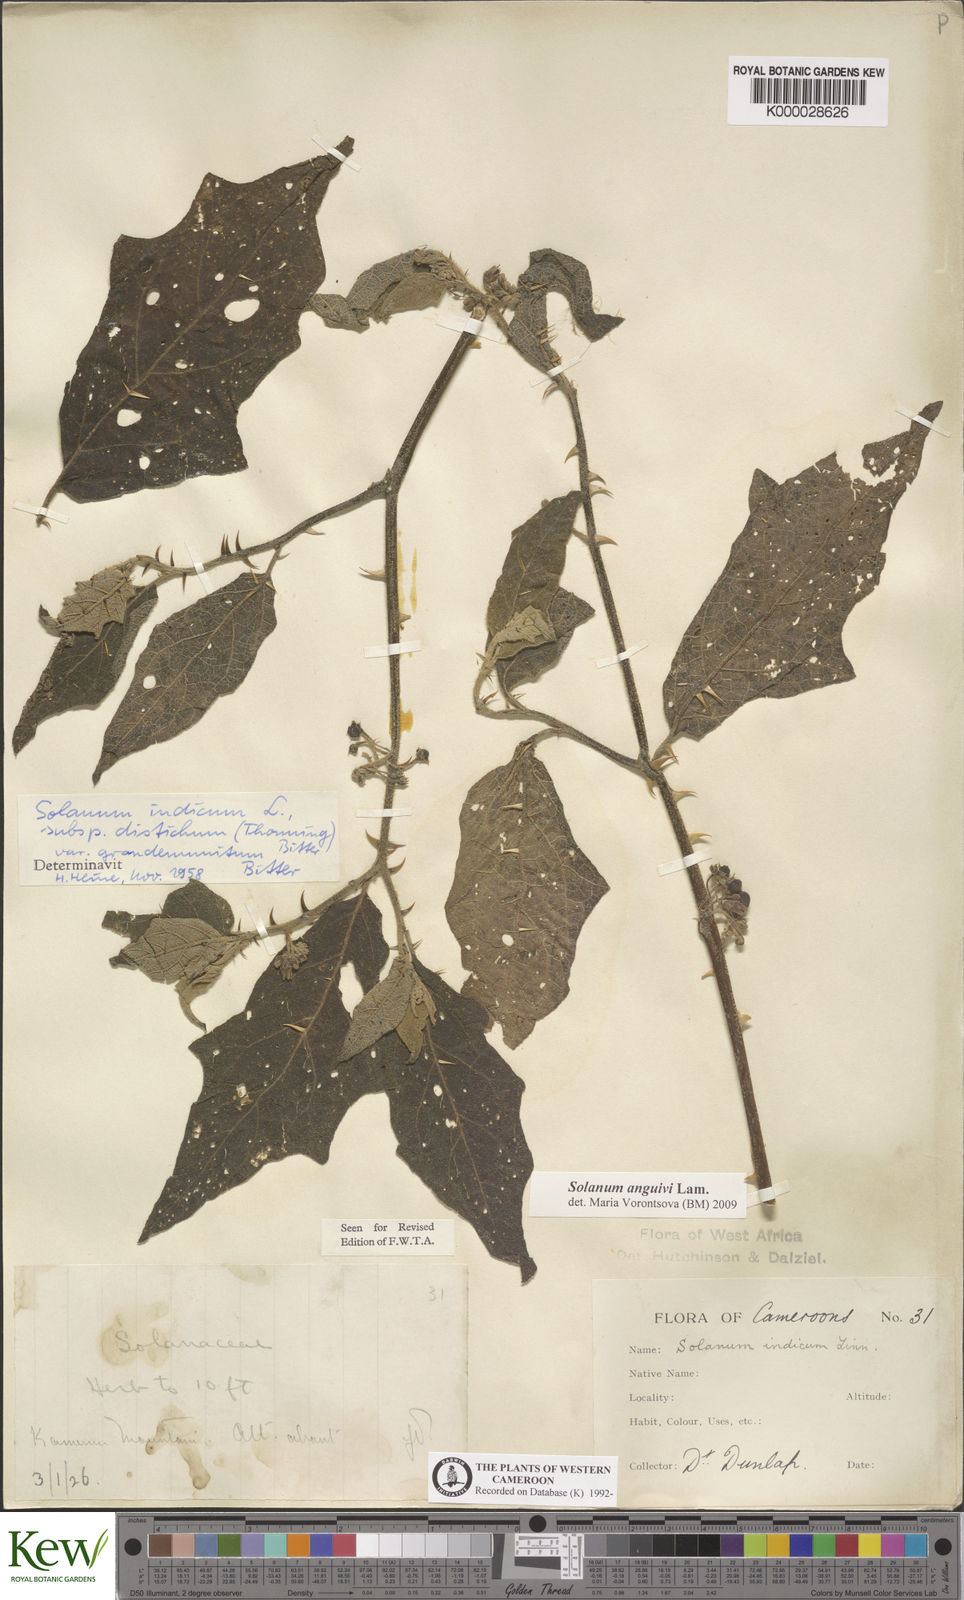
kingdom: Plantae
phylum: Tracheophyta
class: Magnoliopsida
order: Solanales
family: Solanaceae
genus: Solanum
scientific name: Solanum violaceum
